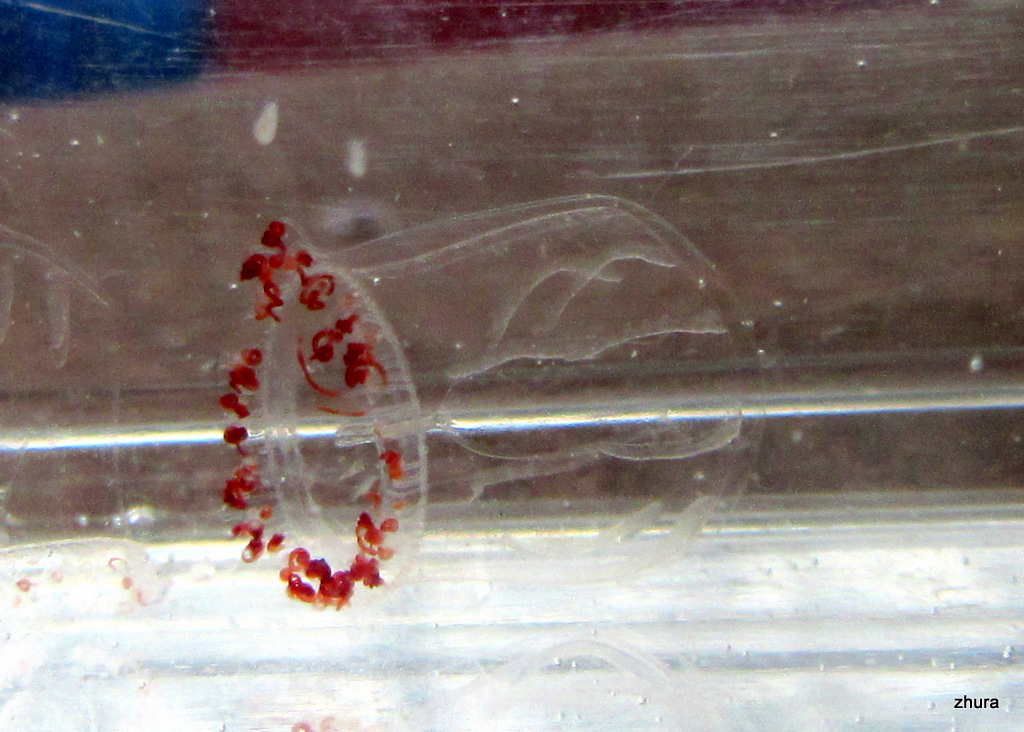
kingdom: Animalia
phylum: Cnidaria
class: Hydrozoa
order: Trachymedusae
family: Rhopalonematidae
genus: Aglantha
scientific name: Aglantha digitale
